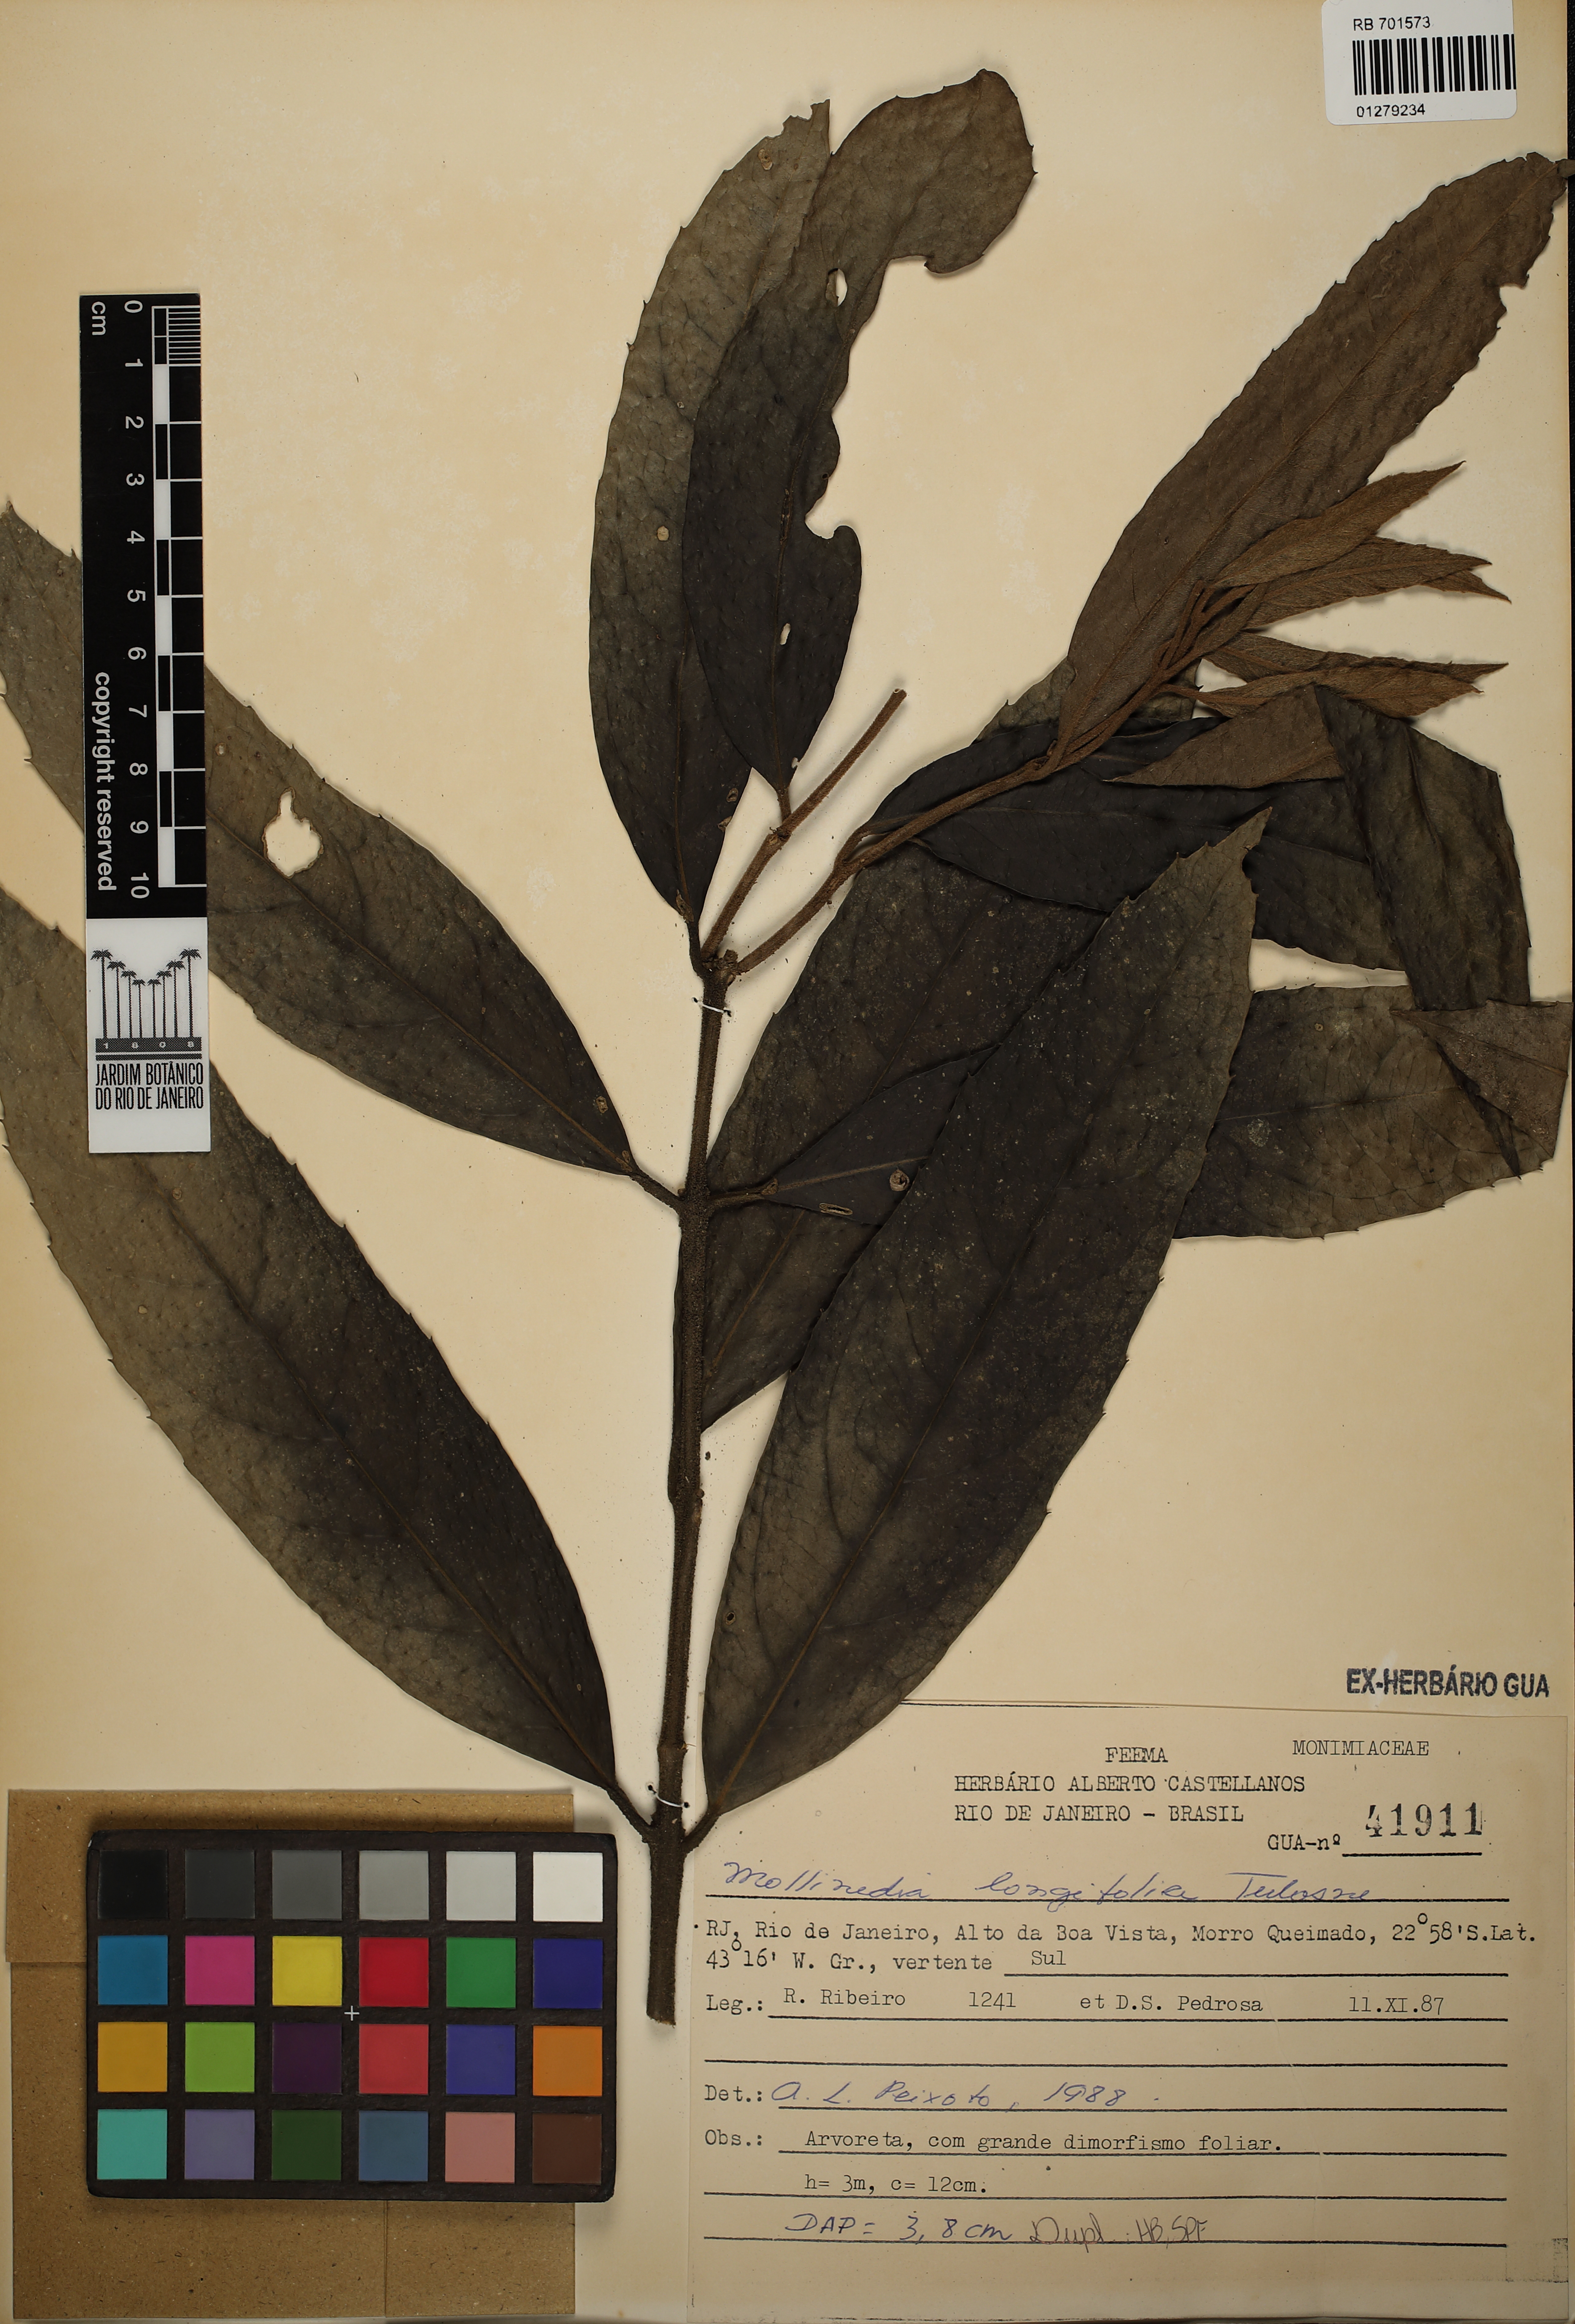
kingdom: Plantae
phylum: Tracheophyta
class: Magnoliopsida
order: Laurales
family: Monimiaceae
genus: Mollinedia
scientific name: Mollinedia longifolia
